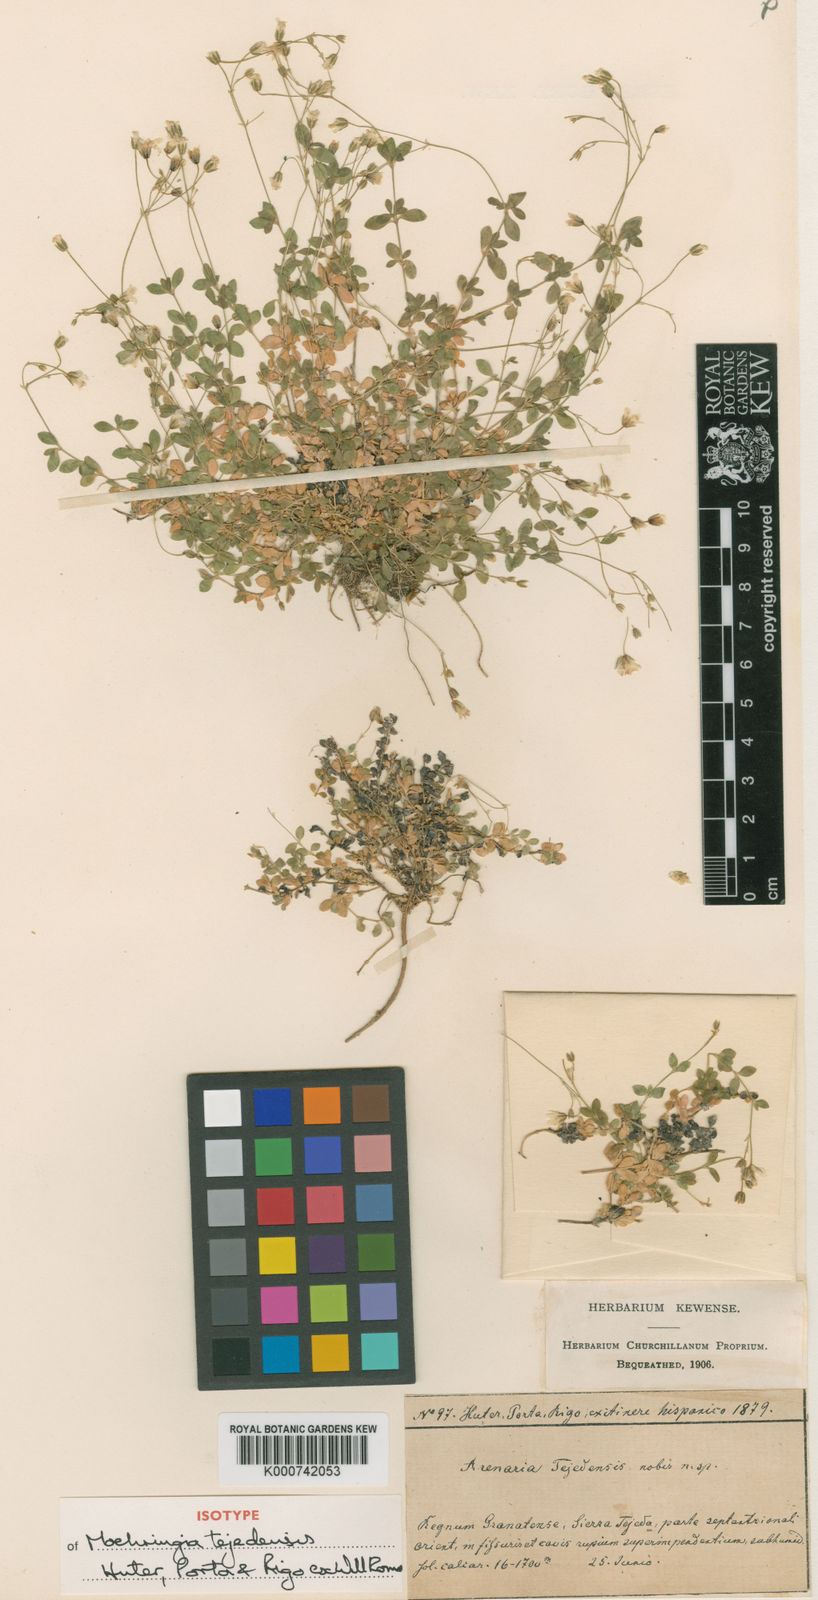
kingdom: Plantae
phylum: Tracheophyta
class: Magnoliopsida
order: Caryophyllales
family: Caryophyllaceae
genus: Arenaria
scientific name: Arenaria tejedensis
